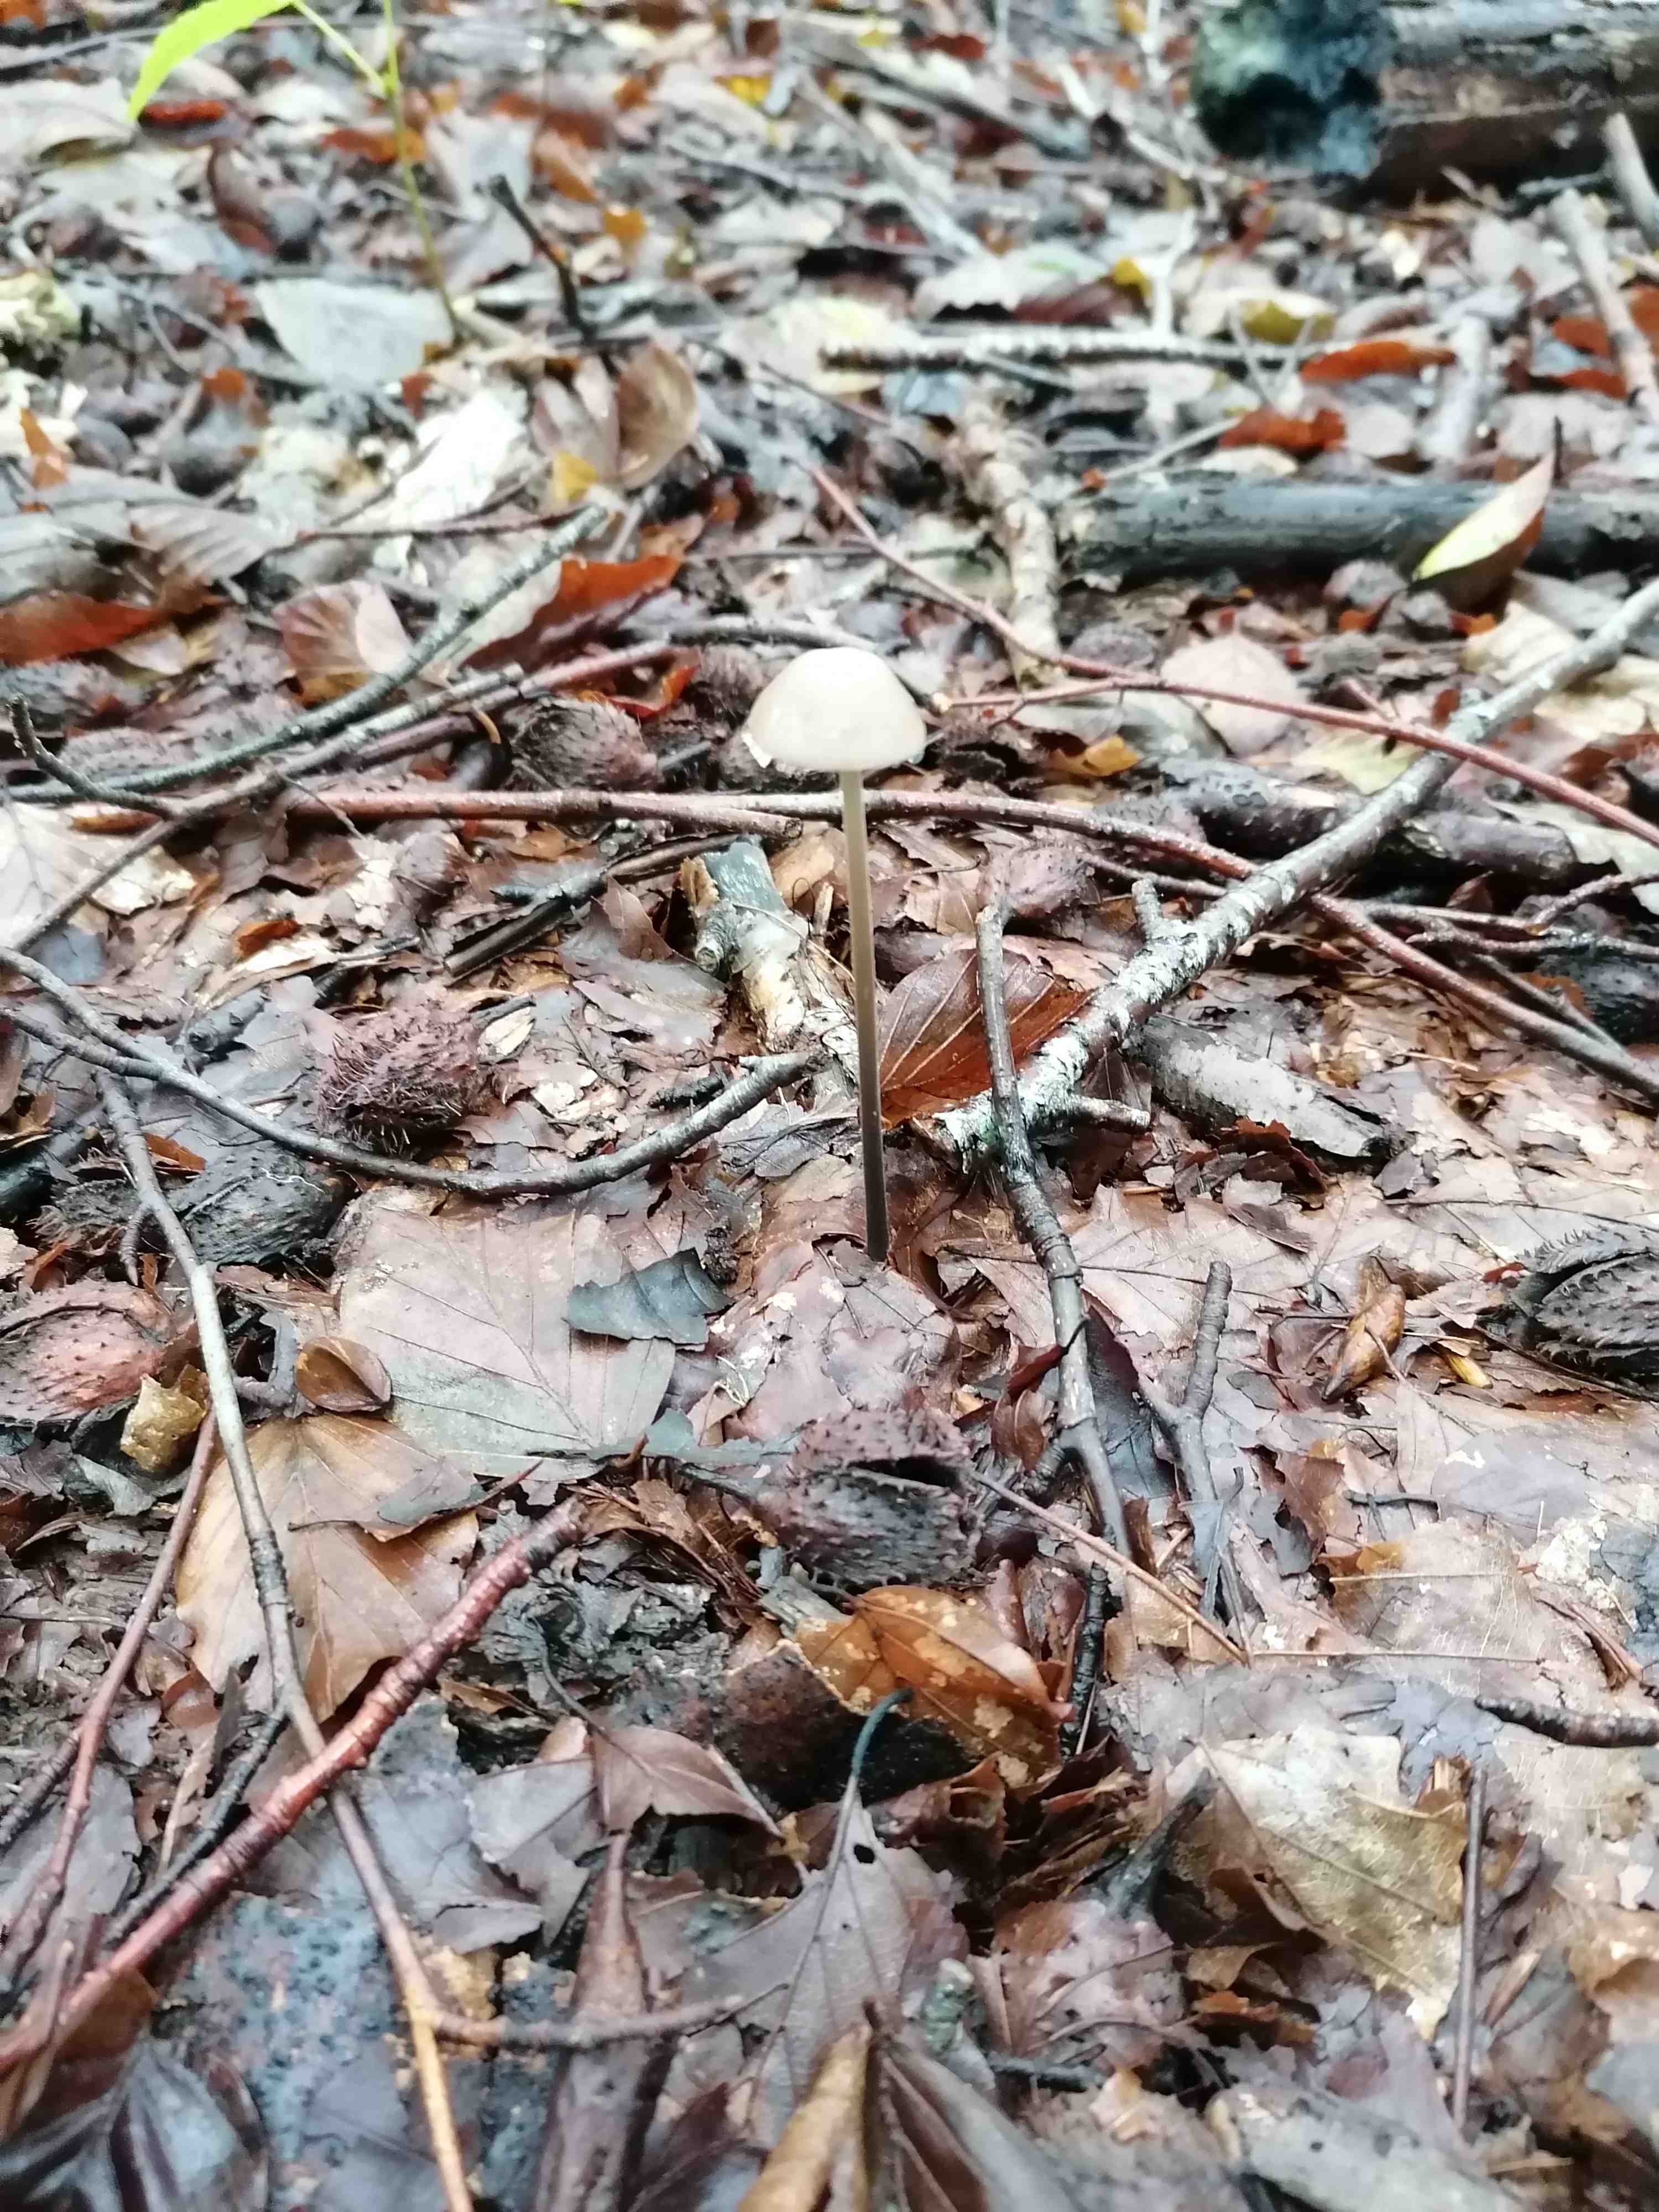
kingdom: Fungi
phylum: Basidiomycota
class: Agaricomycetes
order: Agaricales
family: Omphalotaceae
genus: Mycetinis
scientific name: Mycetinis alliaceus
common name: stor løghat
